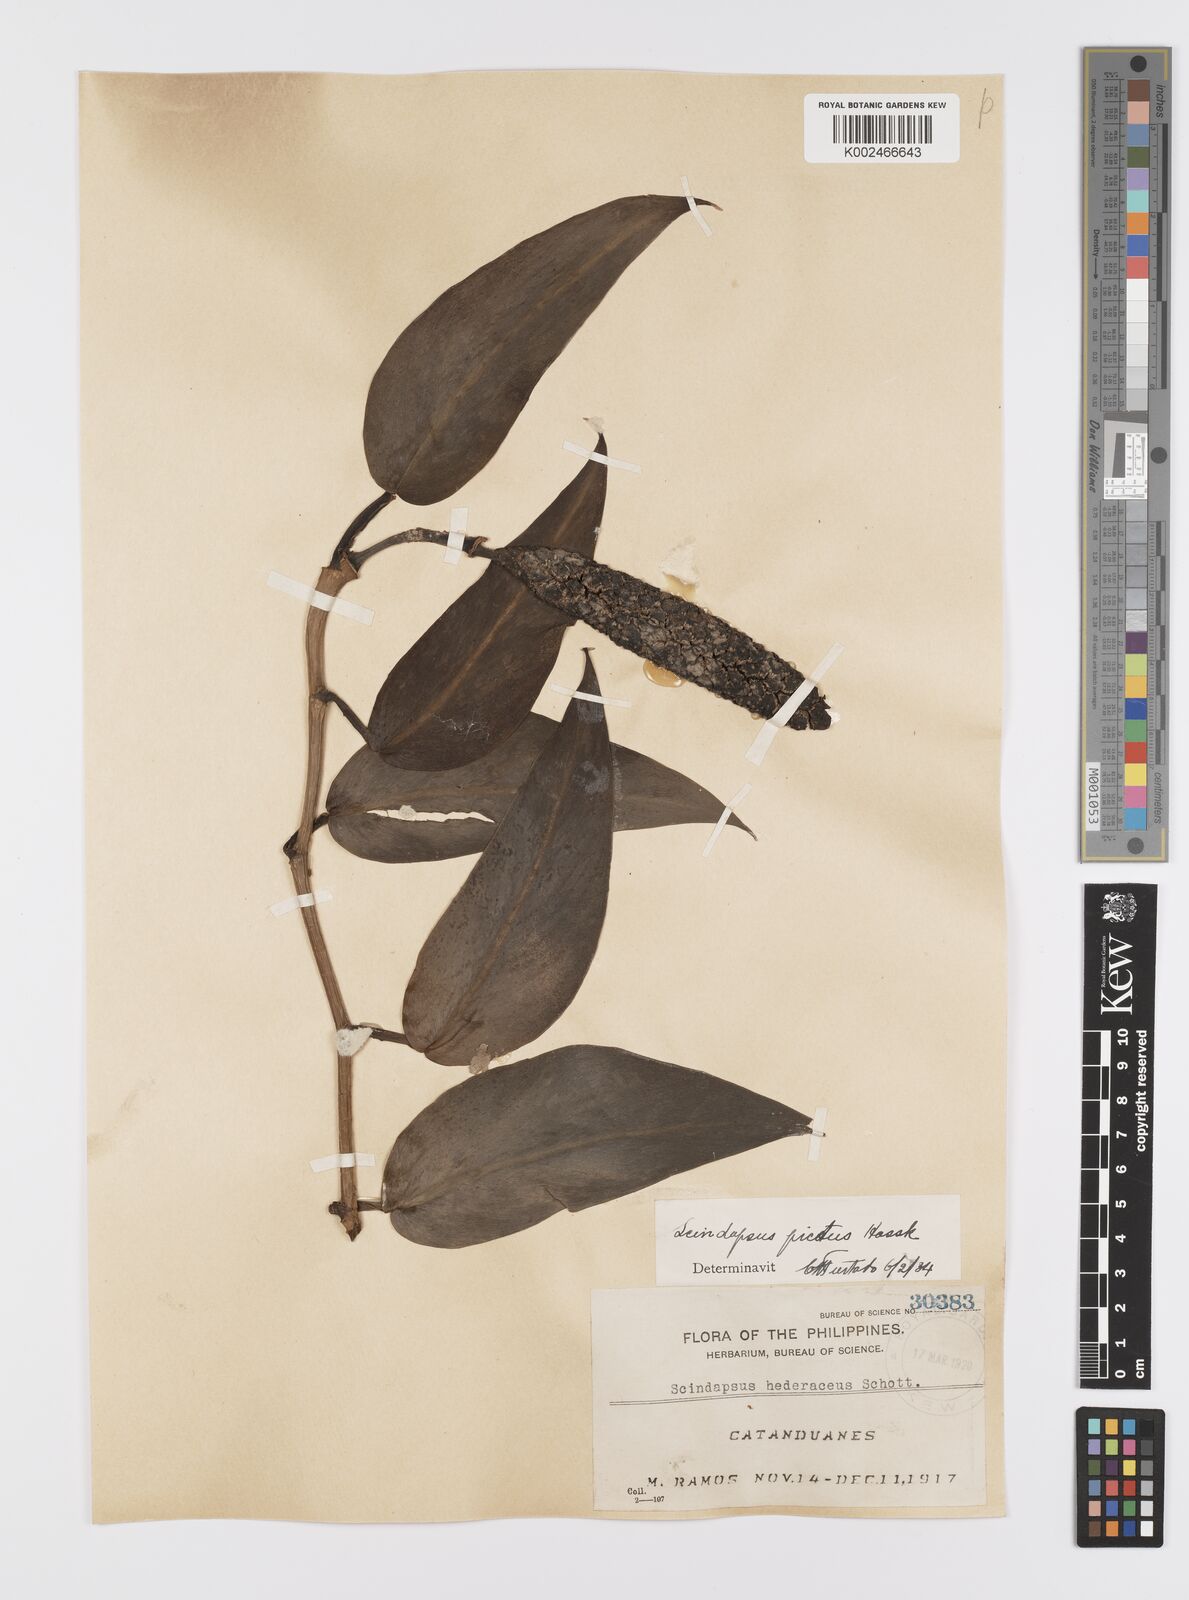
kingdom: Plantae
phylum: Tracheophyta
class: Liliopsida
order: Alismatales
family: Araceae
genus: Scindapsus
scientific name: Scindapsus pictus
